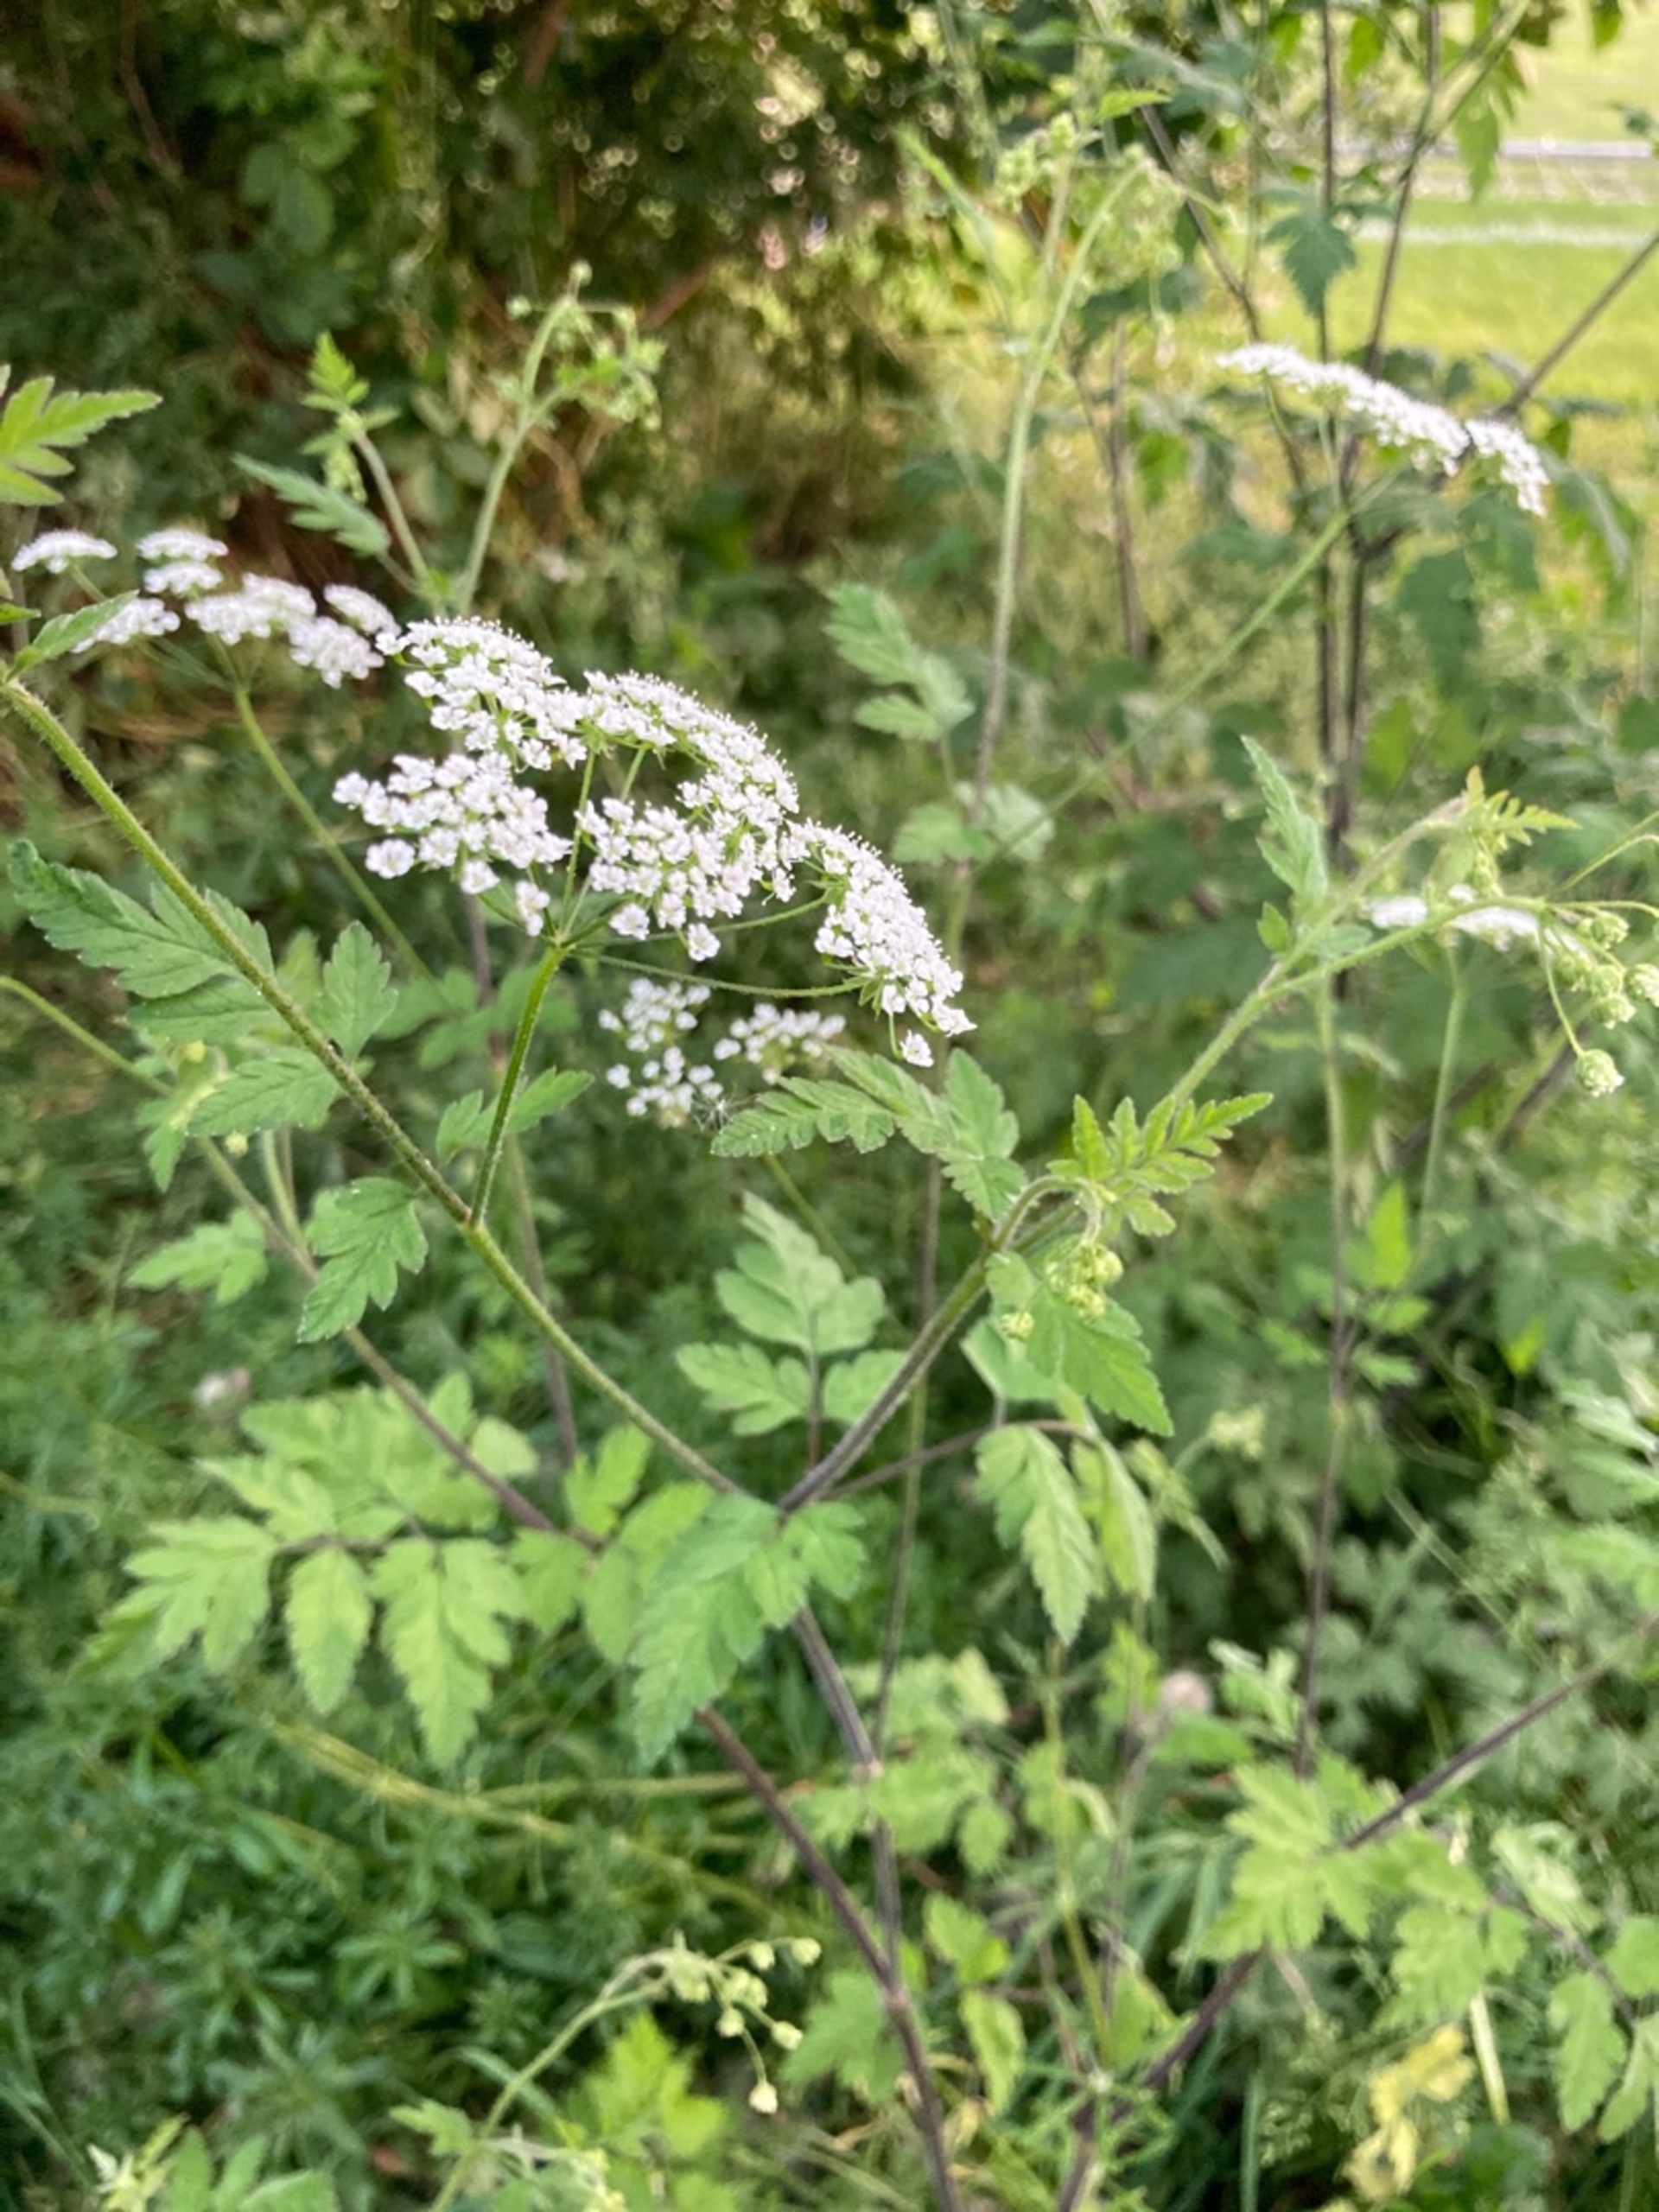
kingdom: Plantae
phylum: Tracheophyta
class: Magnoliopsida
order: Apiales
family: Apiaceae
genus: Chaerophyllum
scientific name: Chaerophyllum temulum
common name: Almindelig hulsvøb
